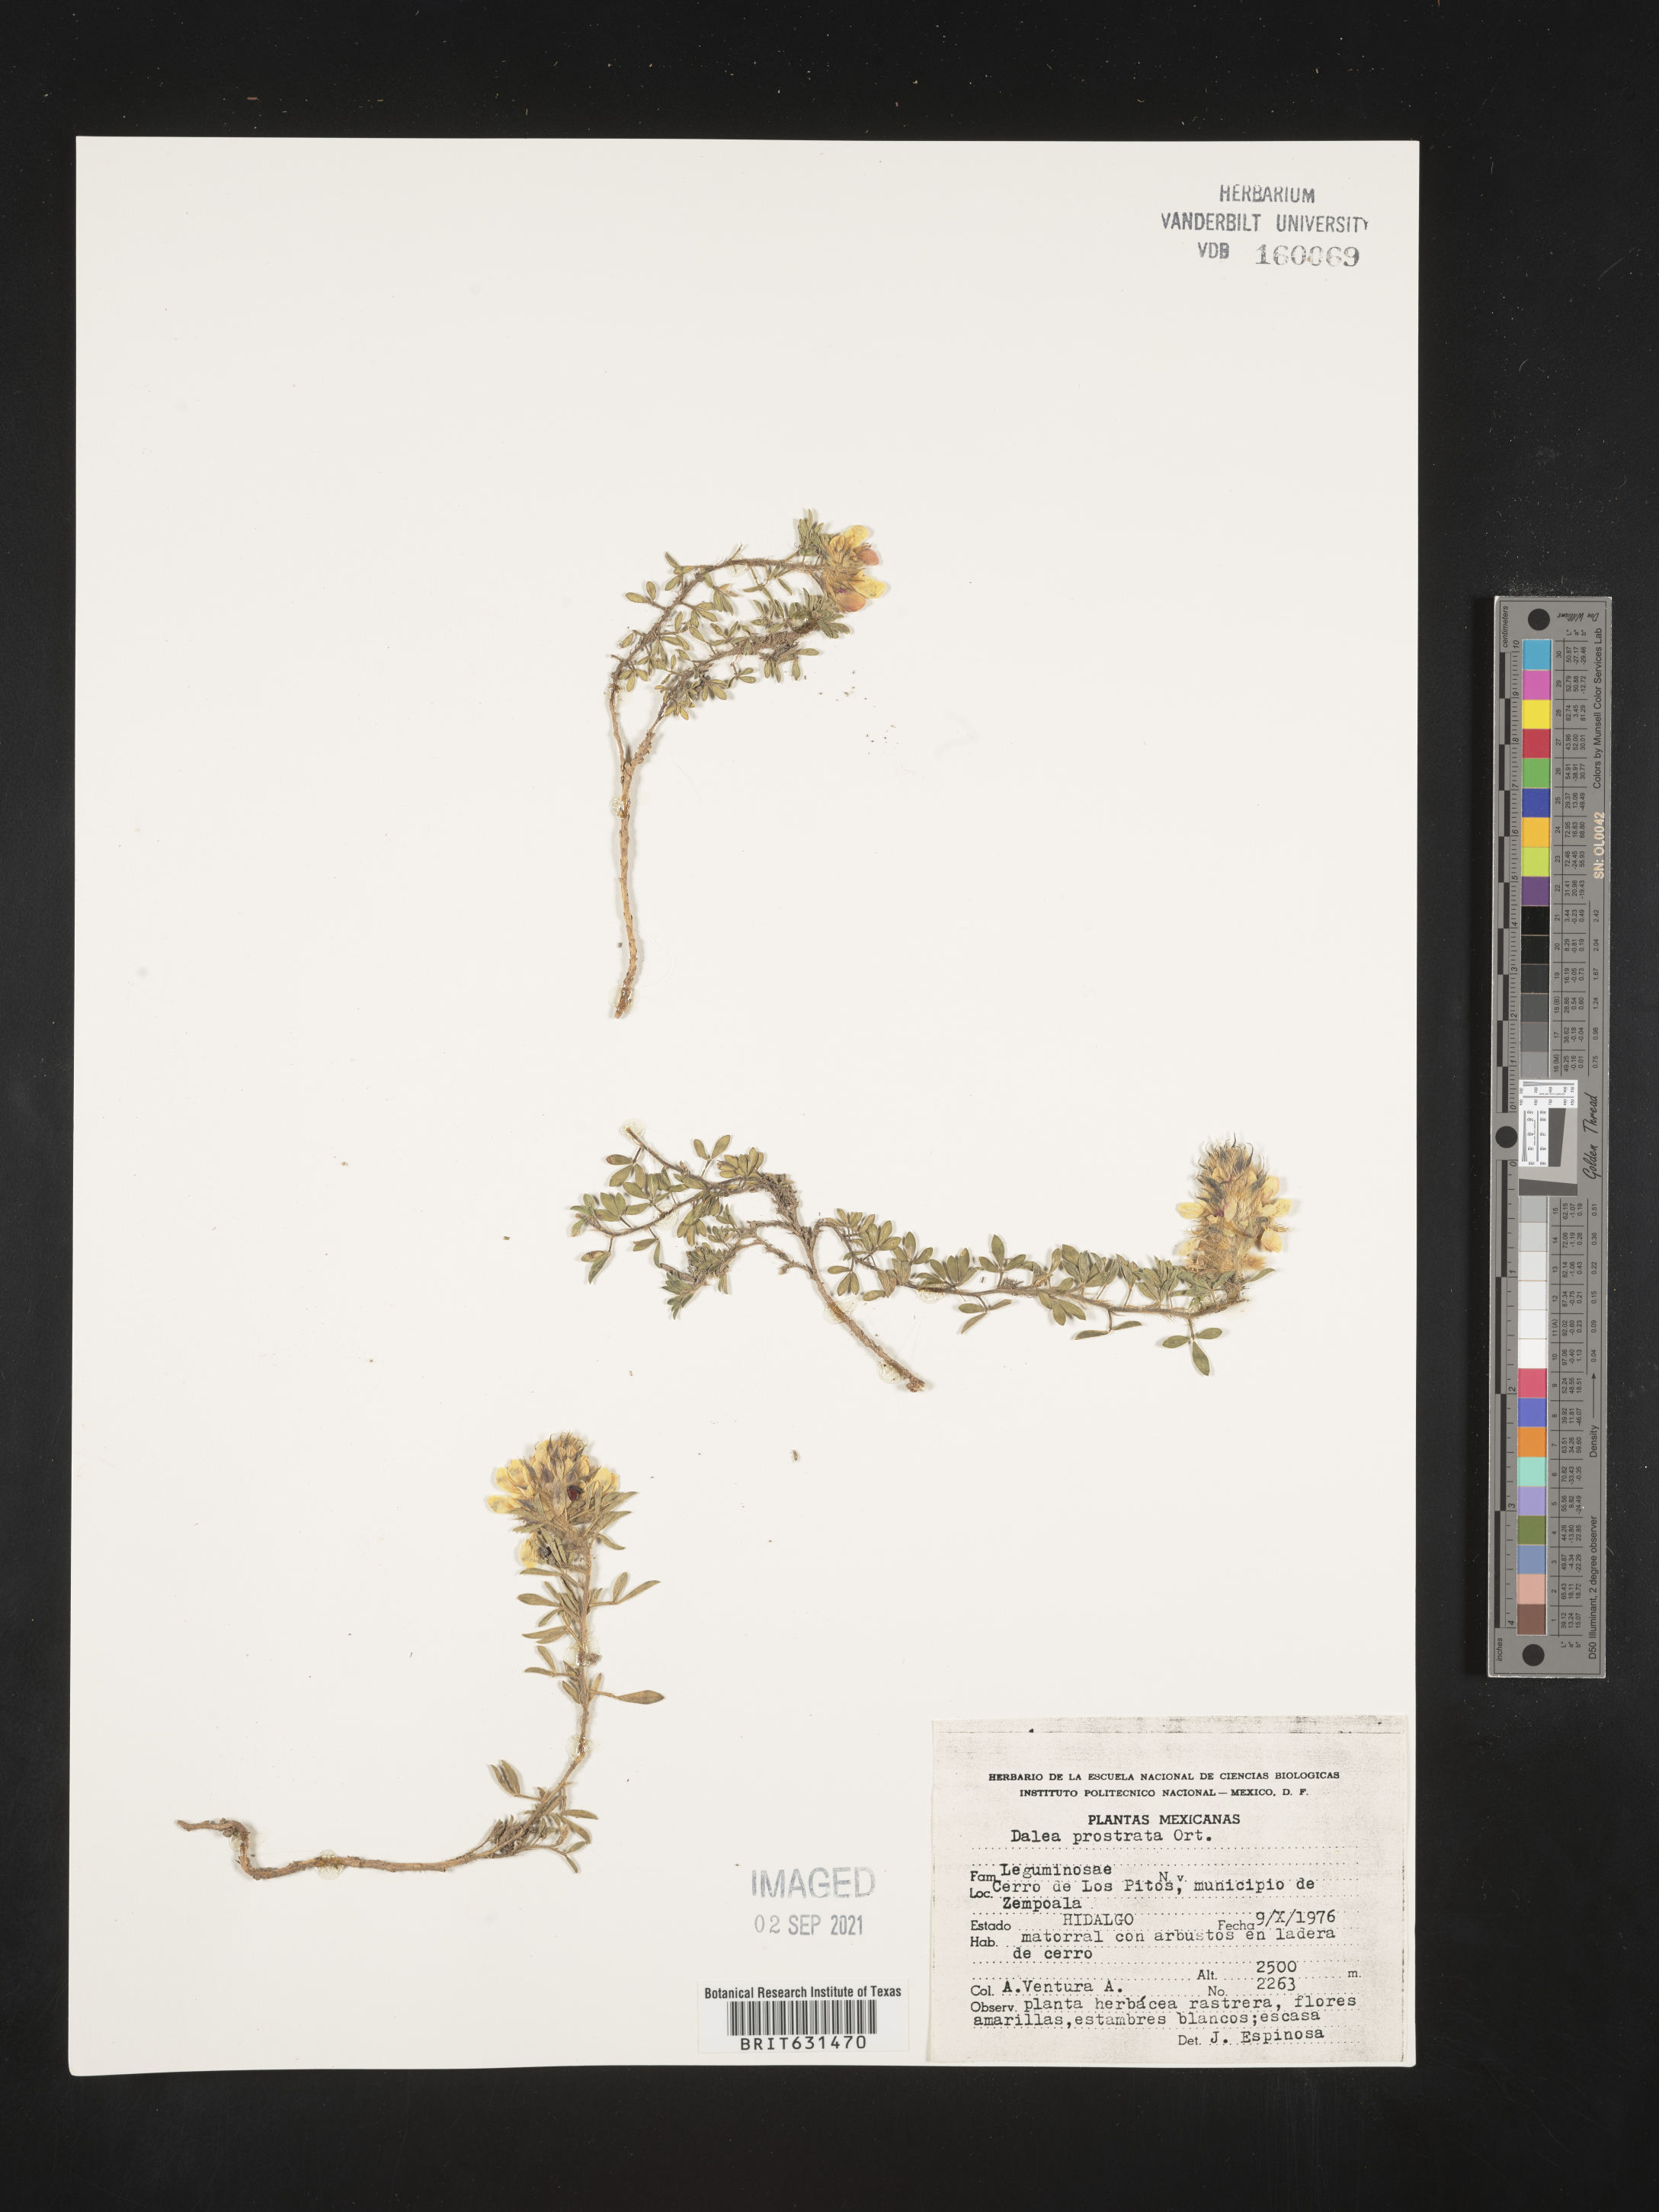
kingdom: Plantae
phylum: Tracheophyta
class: Magnoliopsida
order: Fabales
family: Fabaceae
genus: Dalea
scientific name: Dalea prostrata
